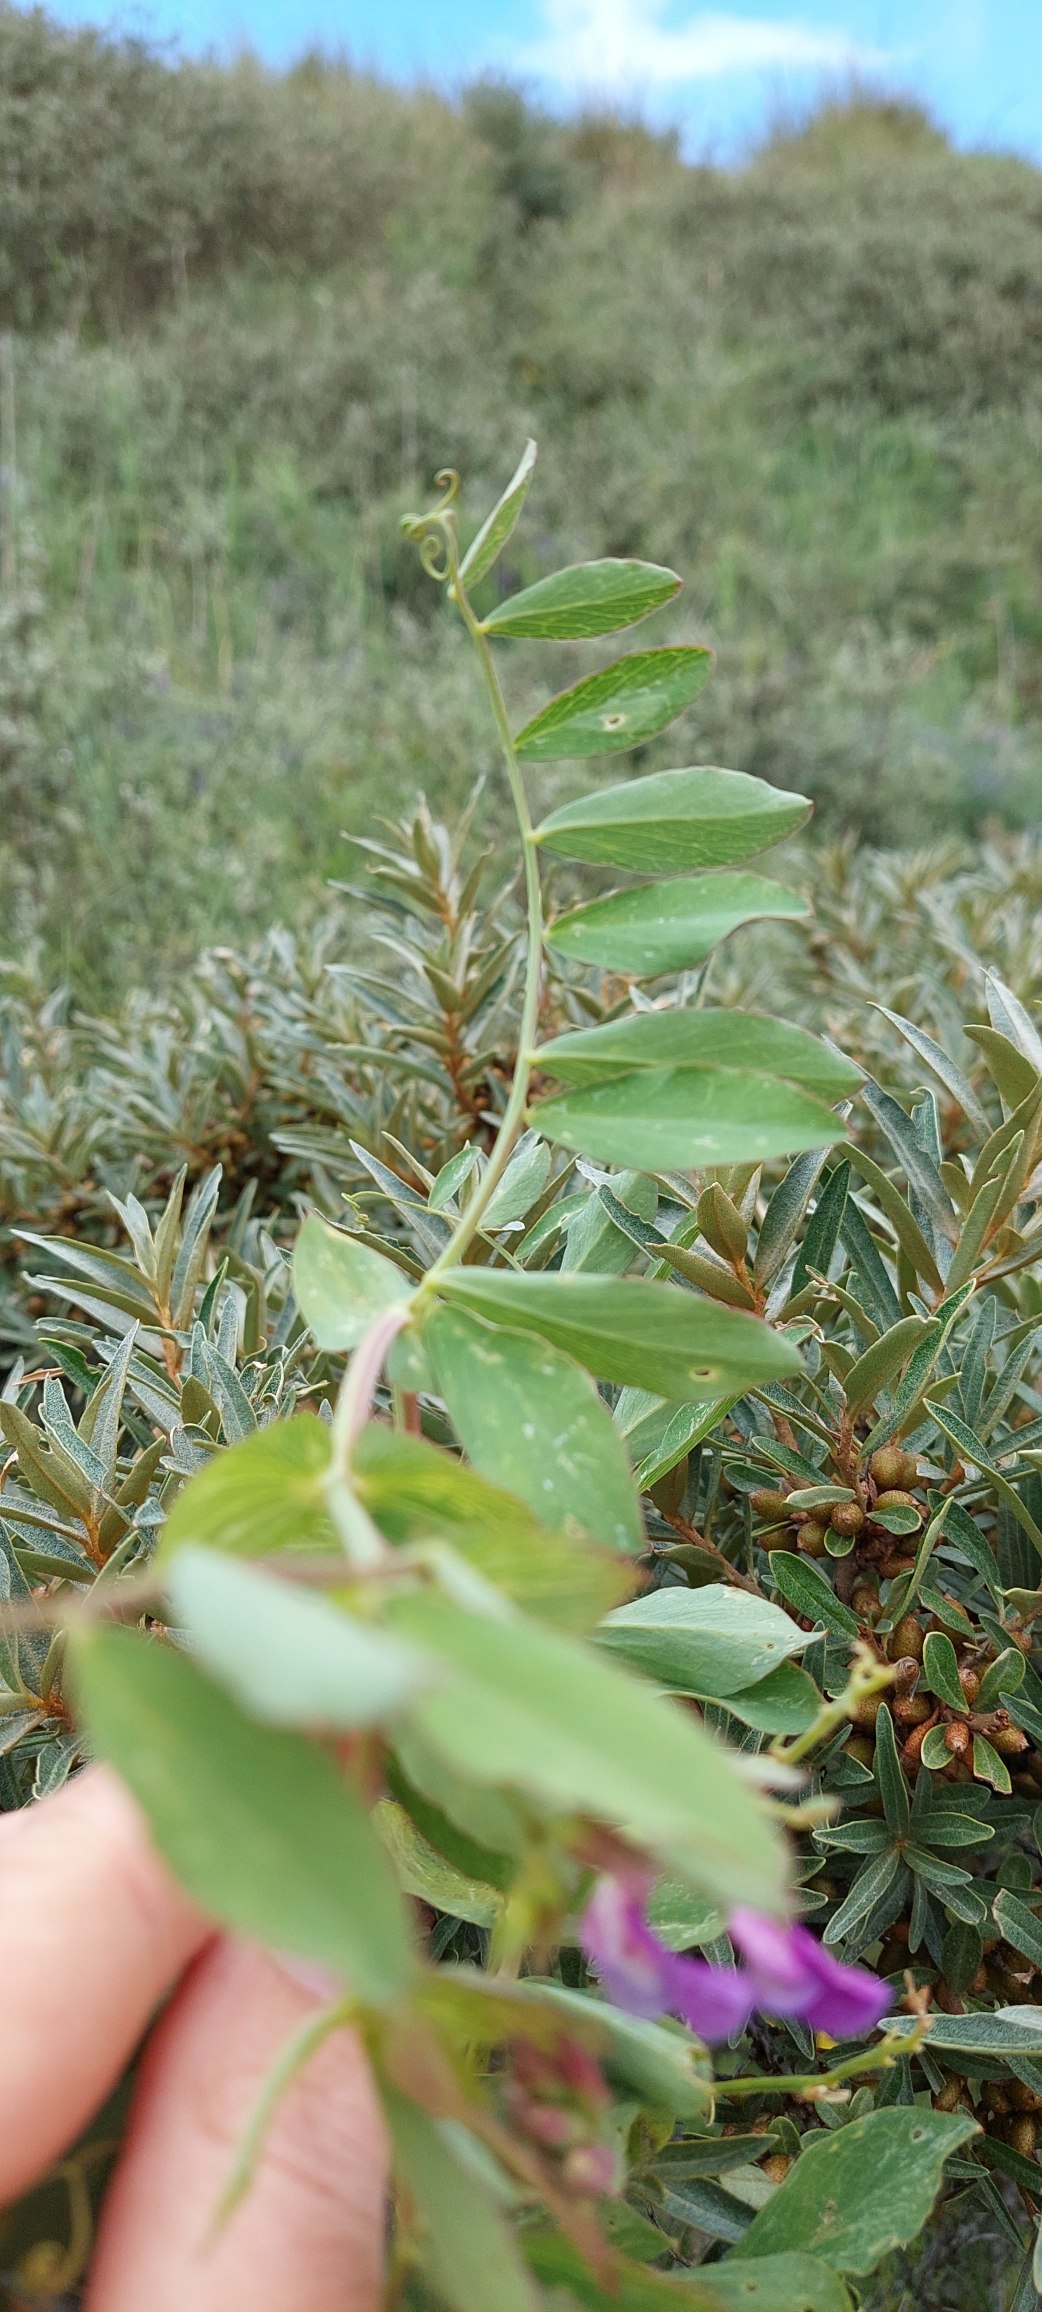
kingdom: Plantae
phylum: Tracheophyta
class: Magnoliopsida
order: Fabales
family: Fabaceae
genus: Lathyrus
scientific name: Lathyrus japonicus
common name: Strand-fladbælg
